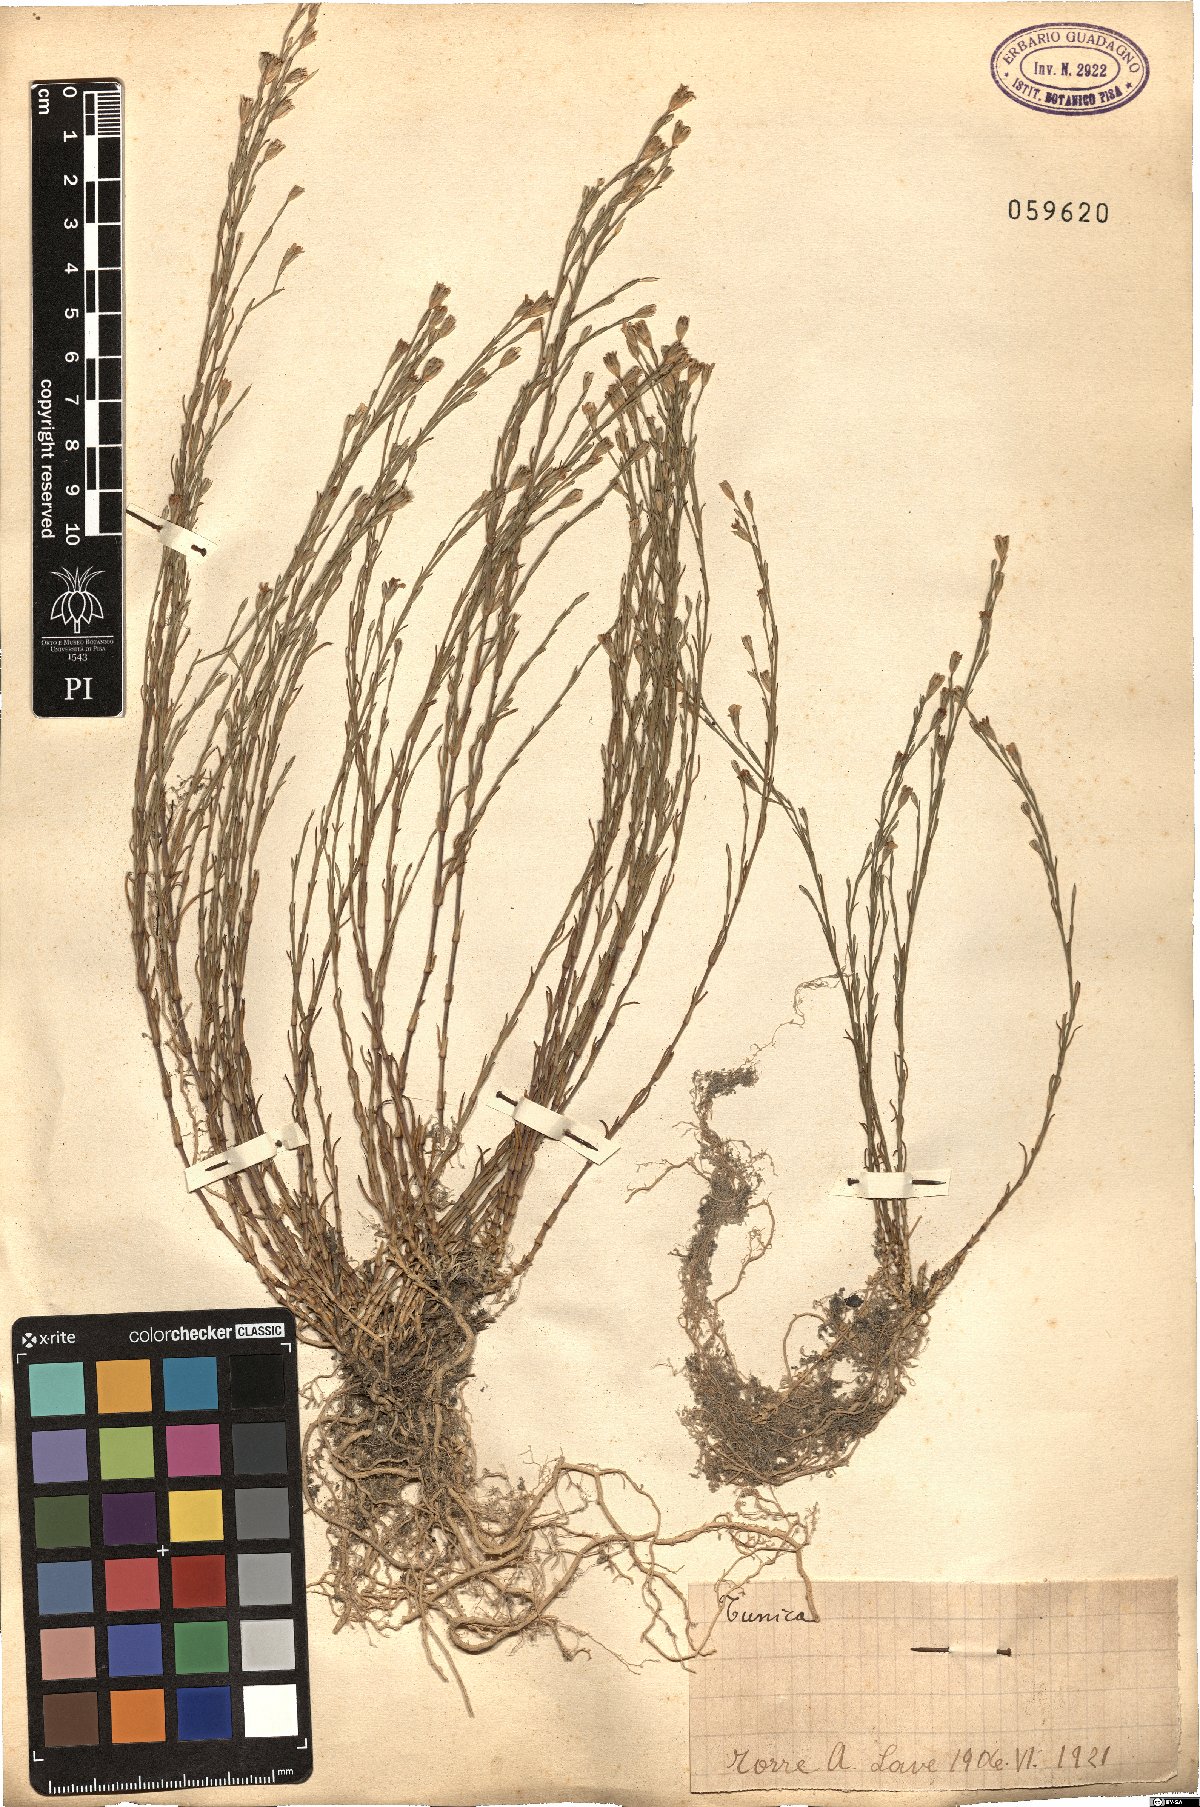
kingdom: Plantae
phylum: Tracheophyta
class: Magnoliopsida
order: Caryophyllales
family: Caryophyllaceae
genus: Tunica
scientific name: Tunica
